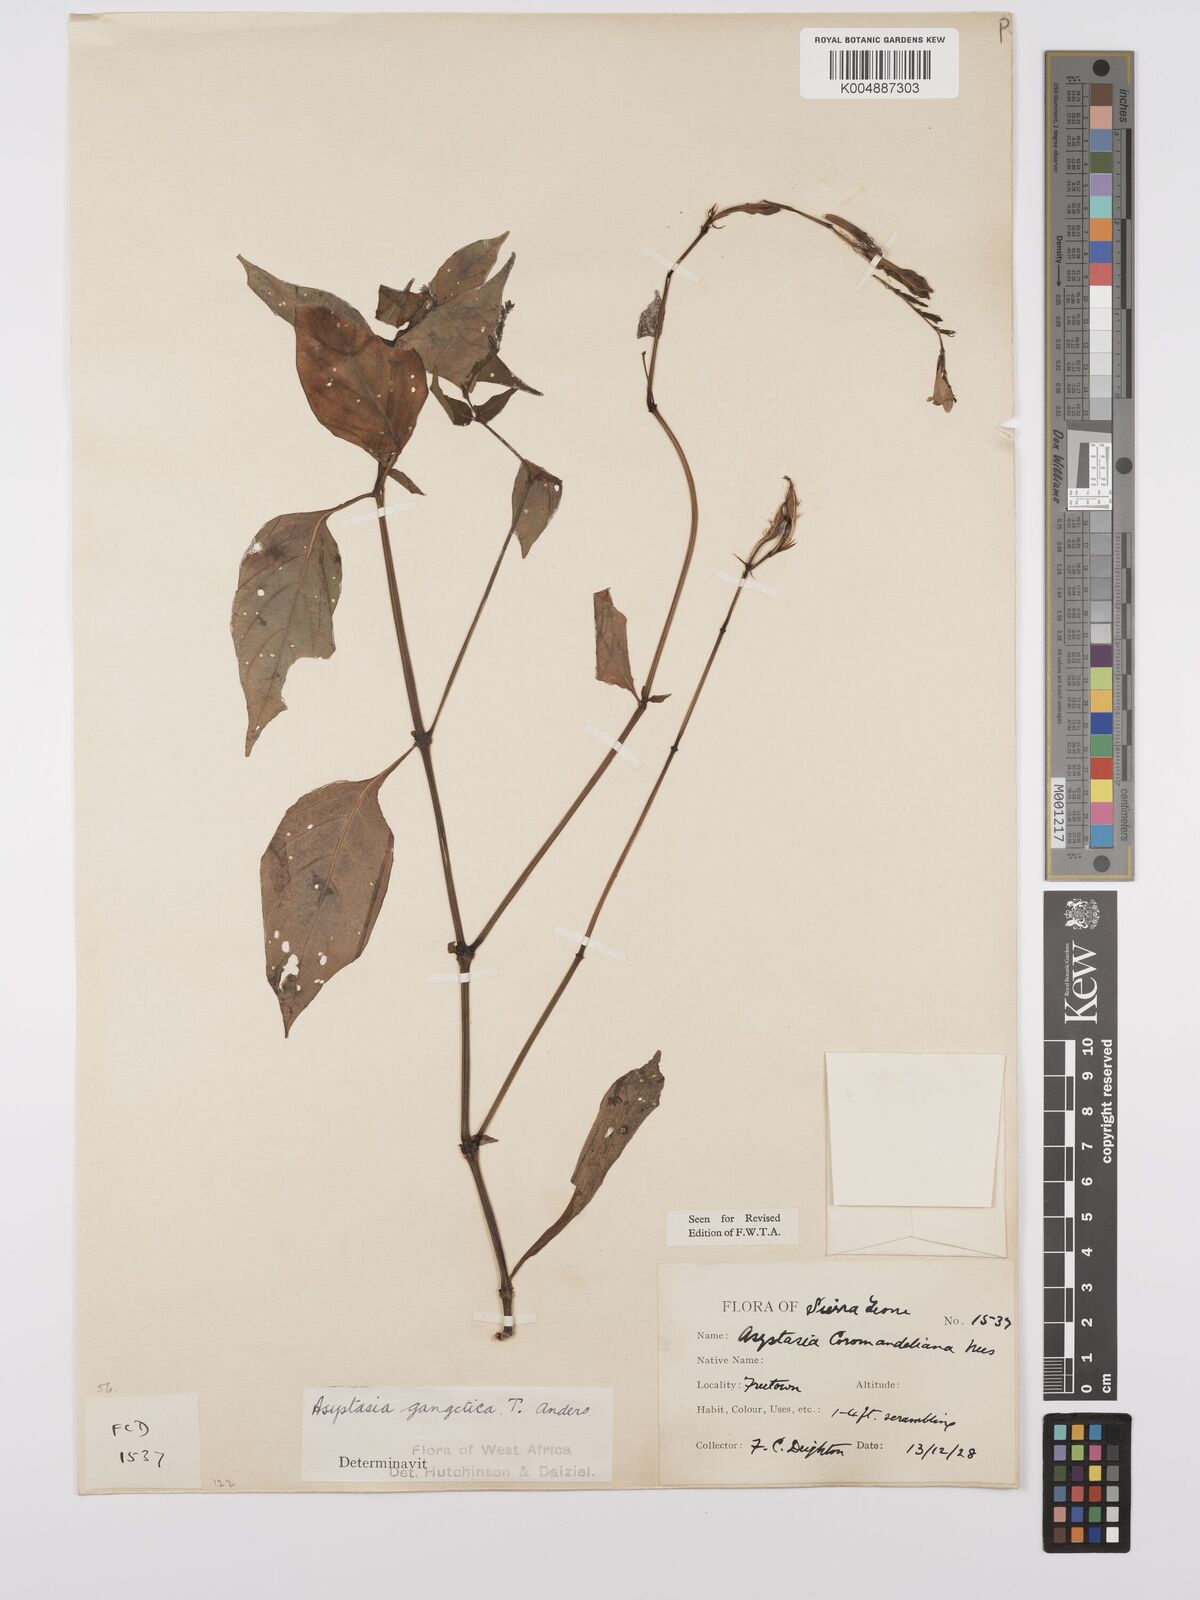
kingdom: Plantae
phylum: Tracheophyta
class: Magnoliopsida
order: Lamiales
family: Acanthaceae
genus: Asystasia
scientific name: Asystasia gangetica
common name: Chinese violet
